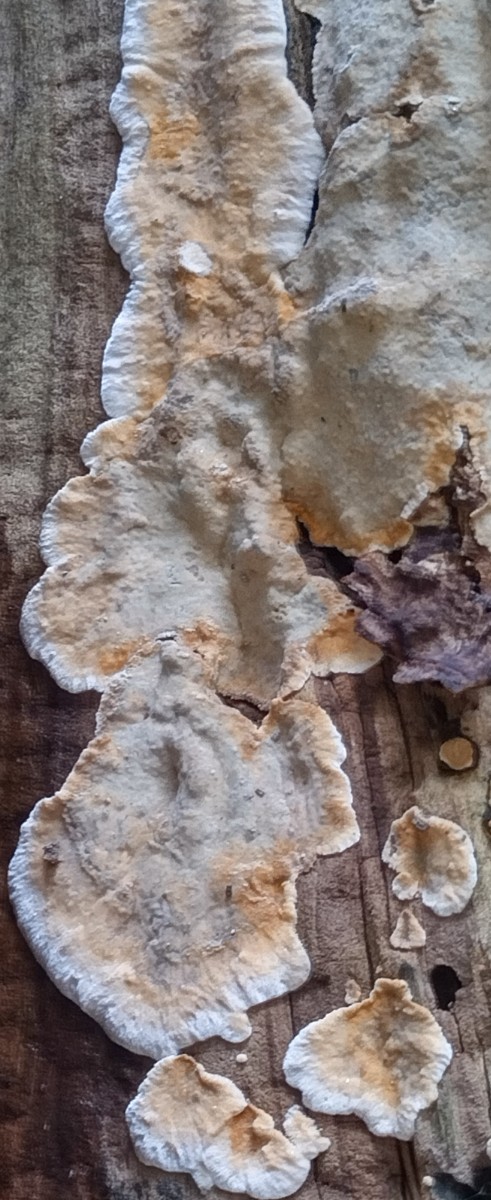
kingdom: Fungi
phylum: Basidiomycota
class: Agaricomycetes
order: Corticiales
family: Corticiaceae
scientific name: Corticiaceae
